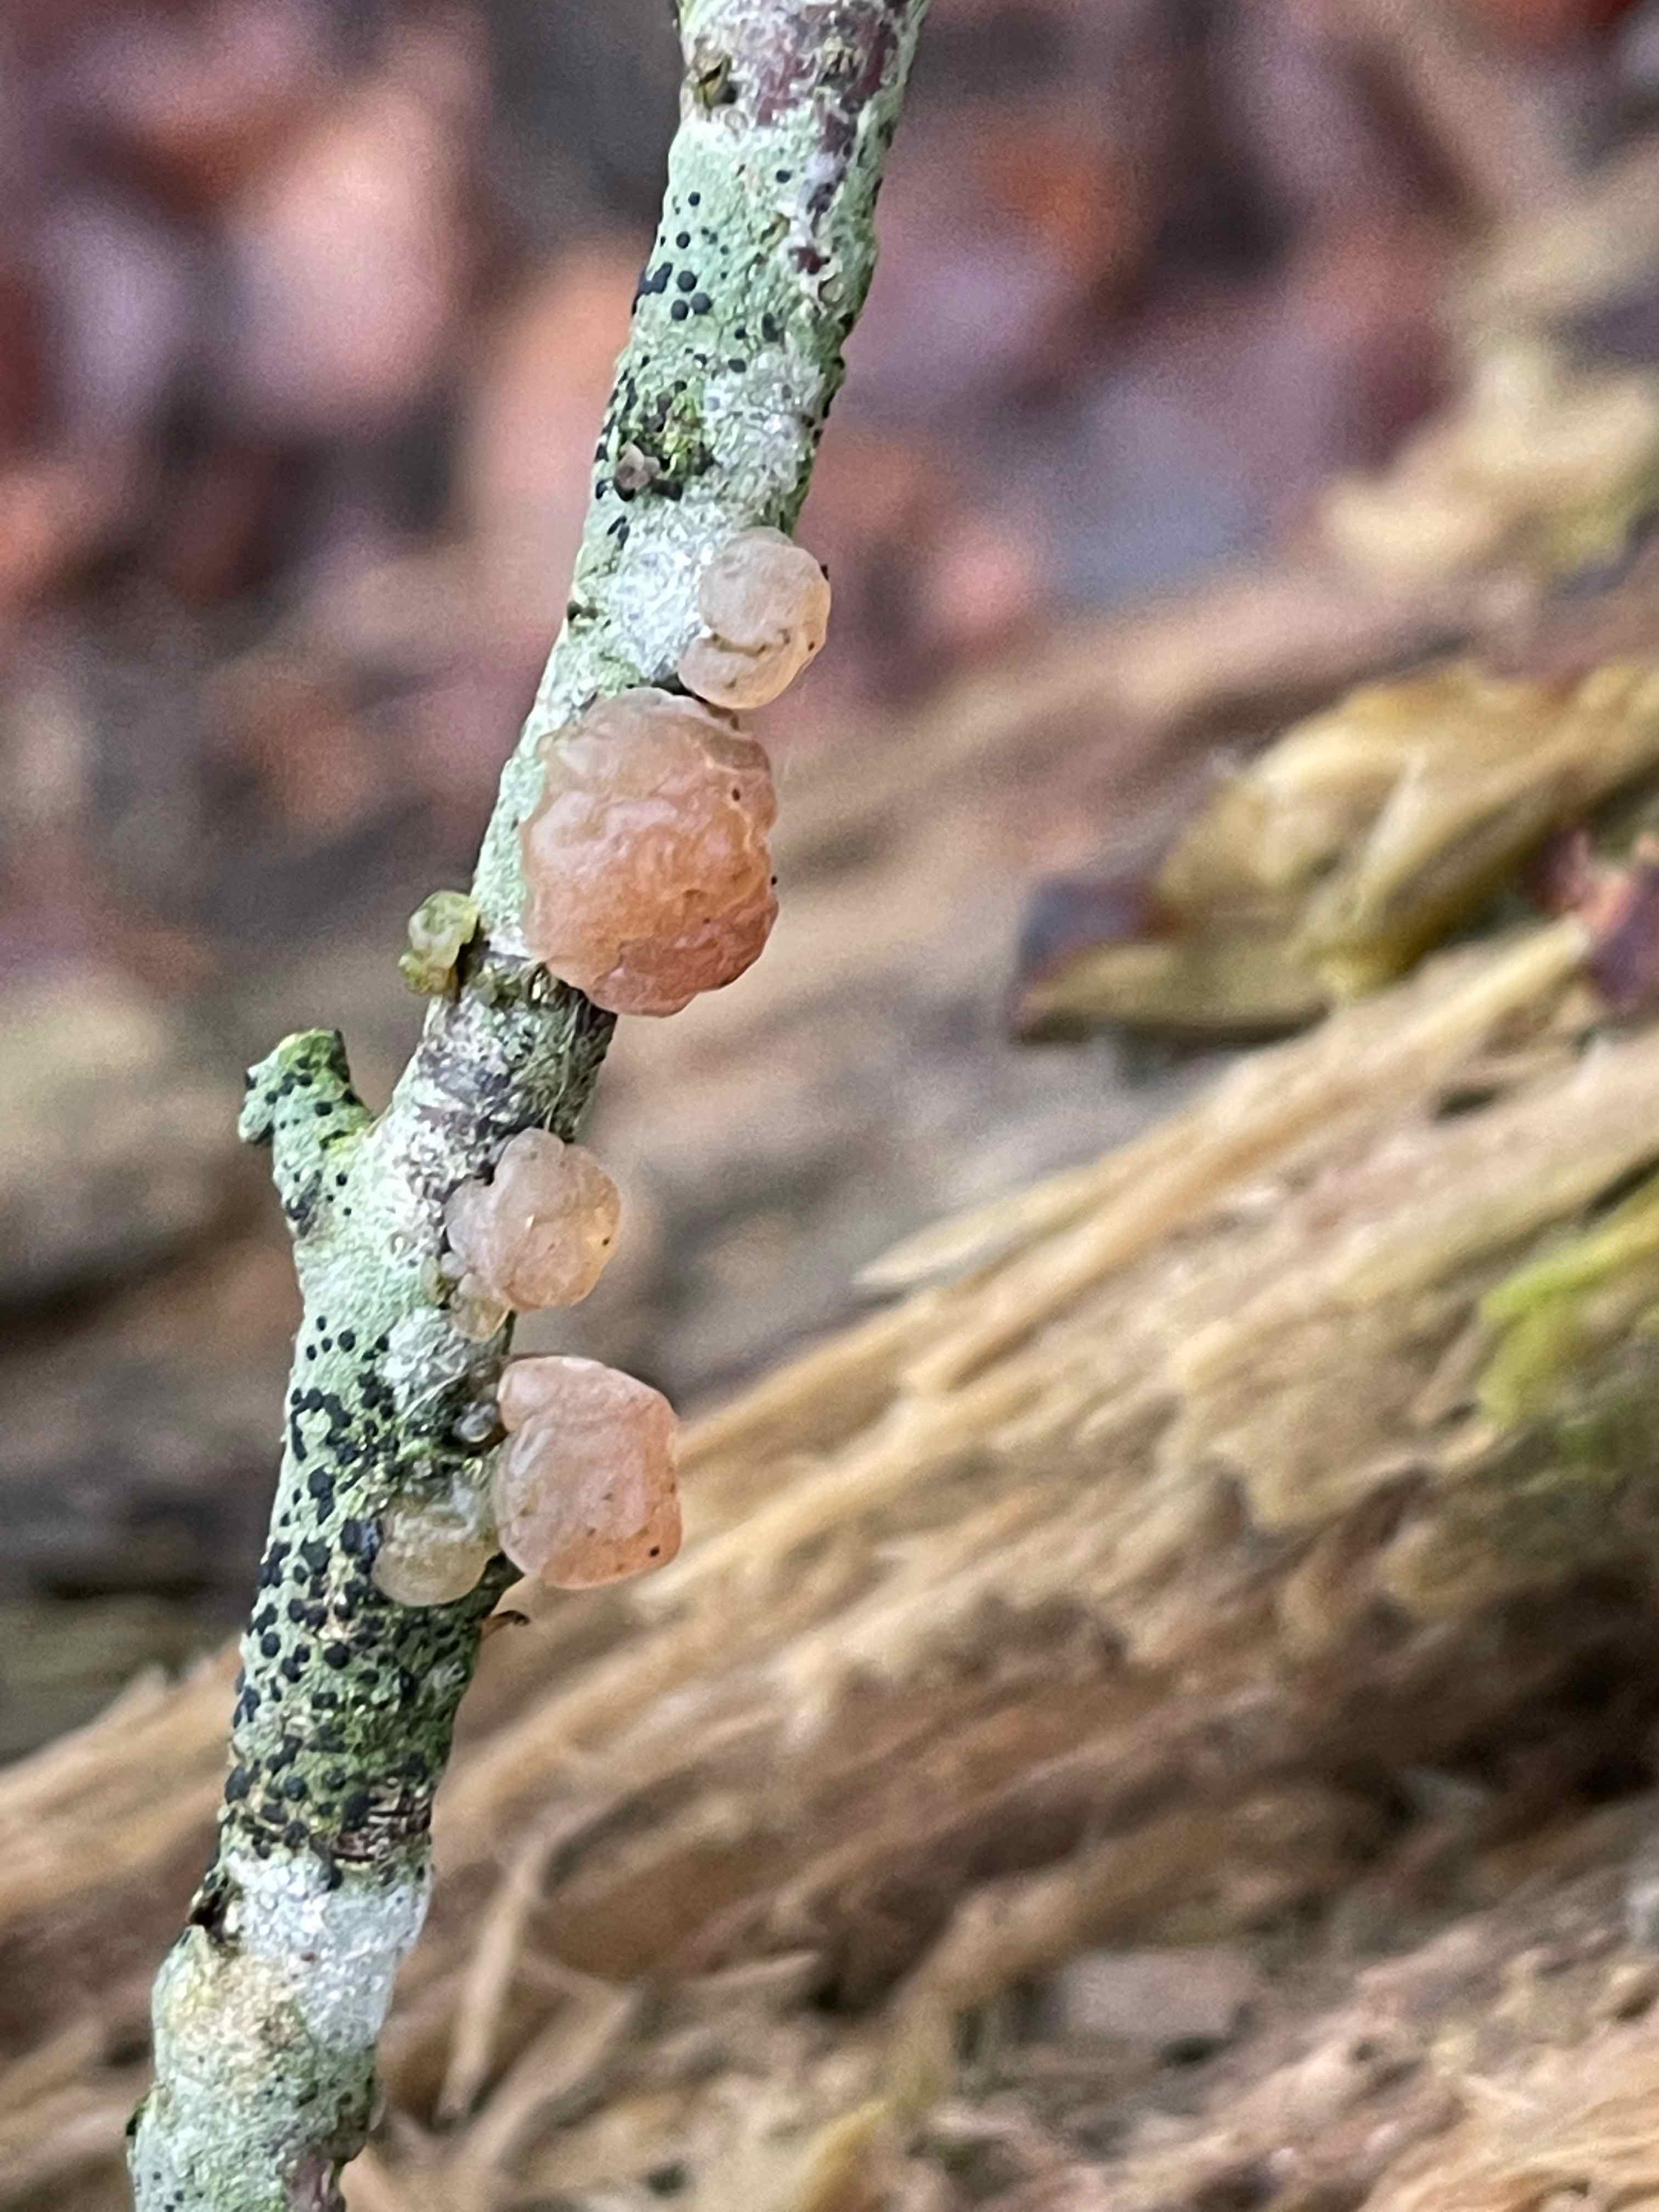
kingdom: Fungi
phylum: Basidiomycota
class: Agaricomycetes
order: Auriculariales
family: Hyaloriaceae
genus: Myxarium
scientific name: Myxarium hyalinum
